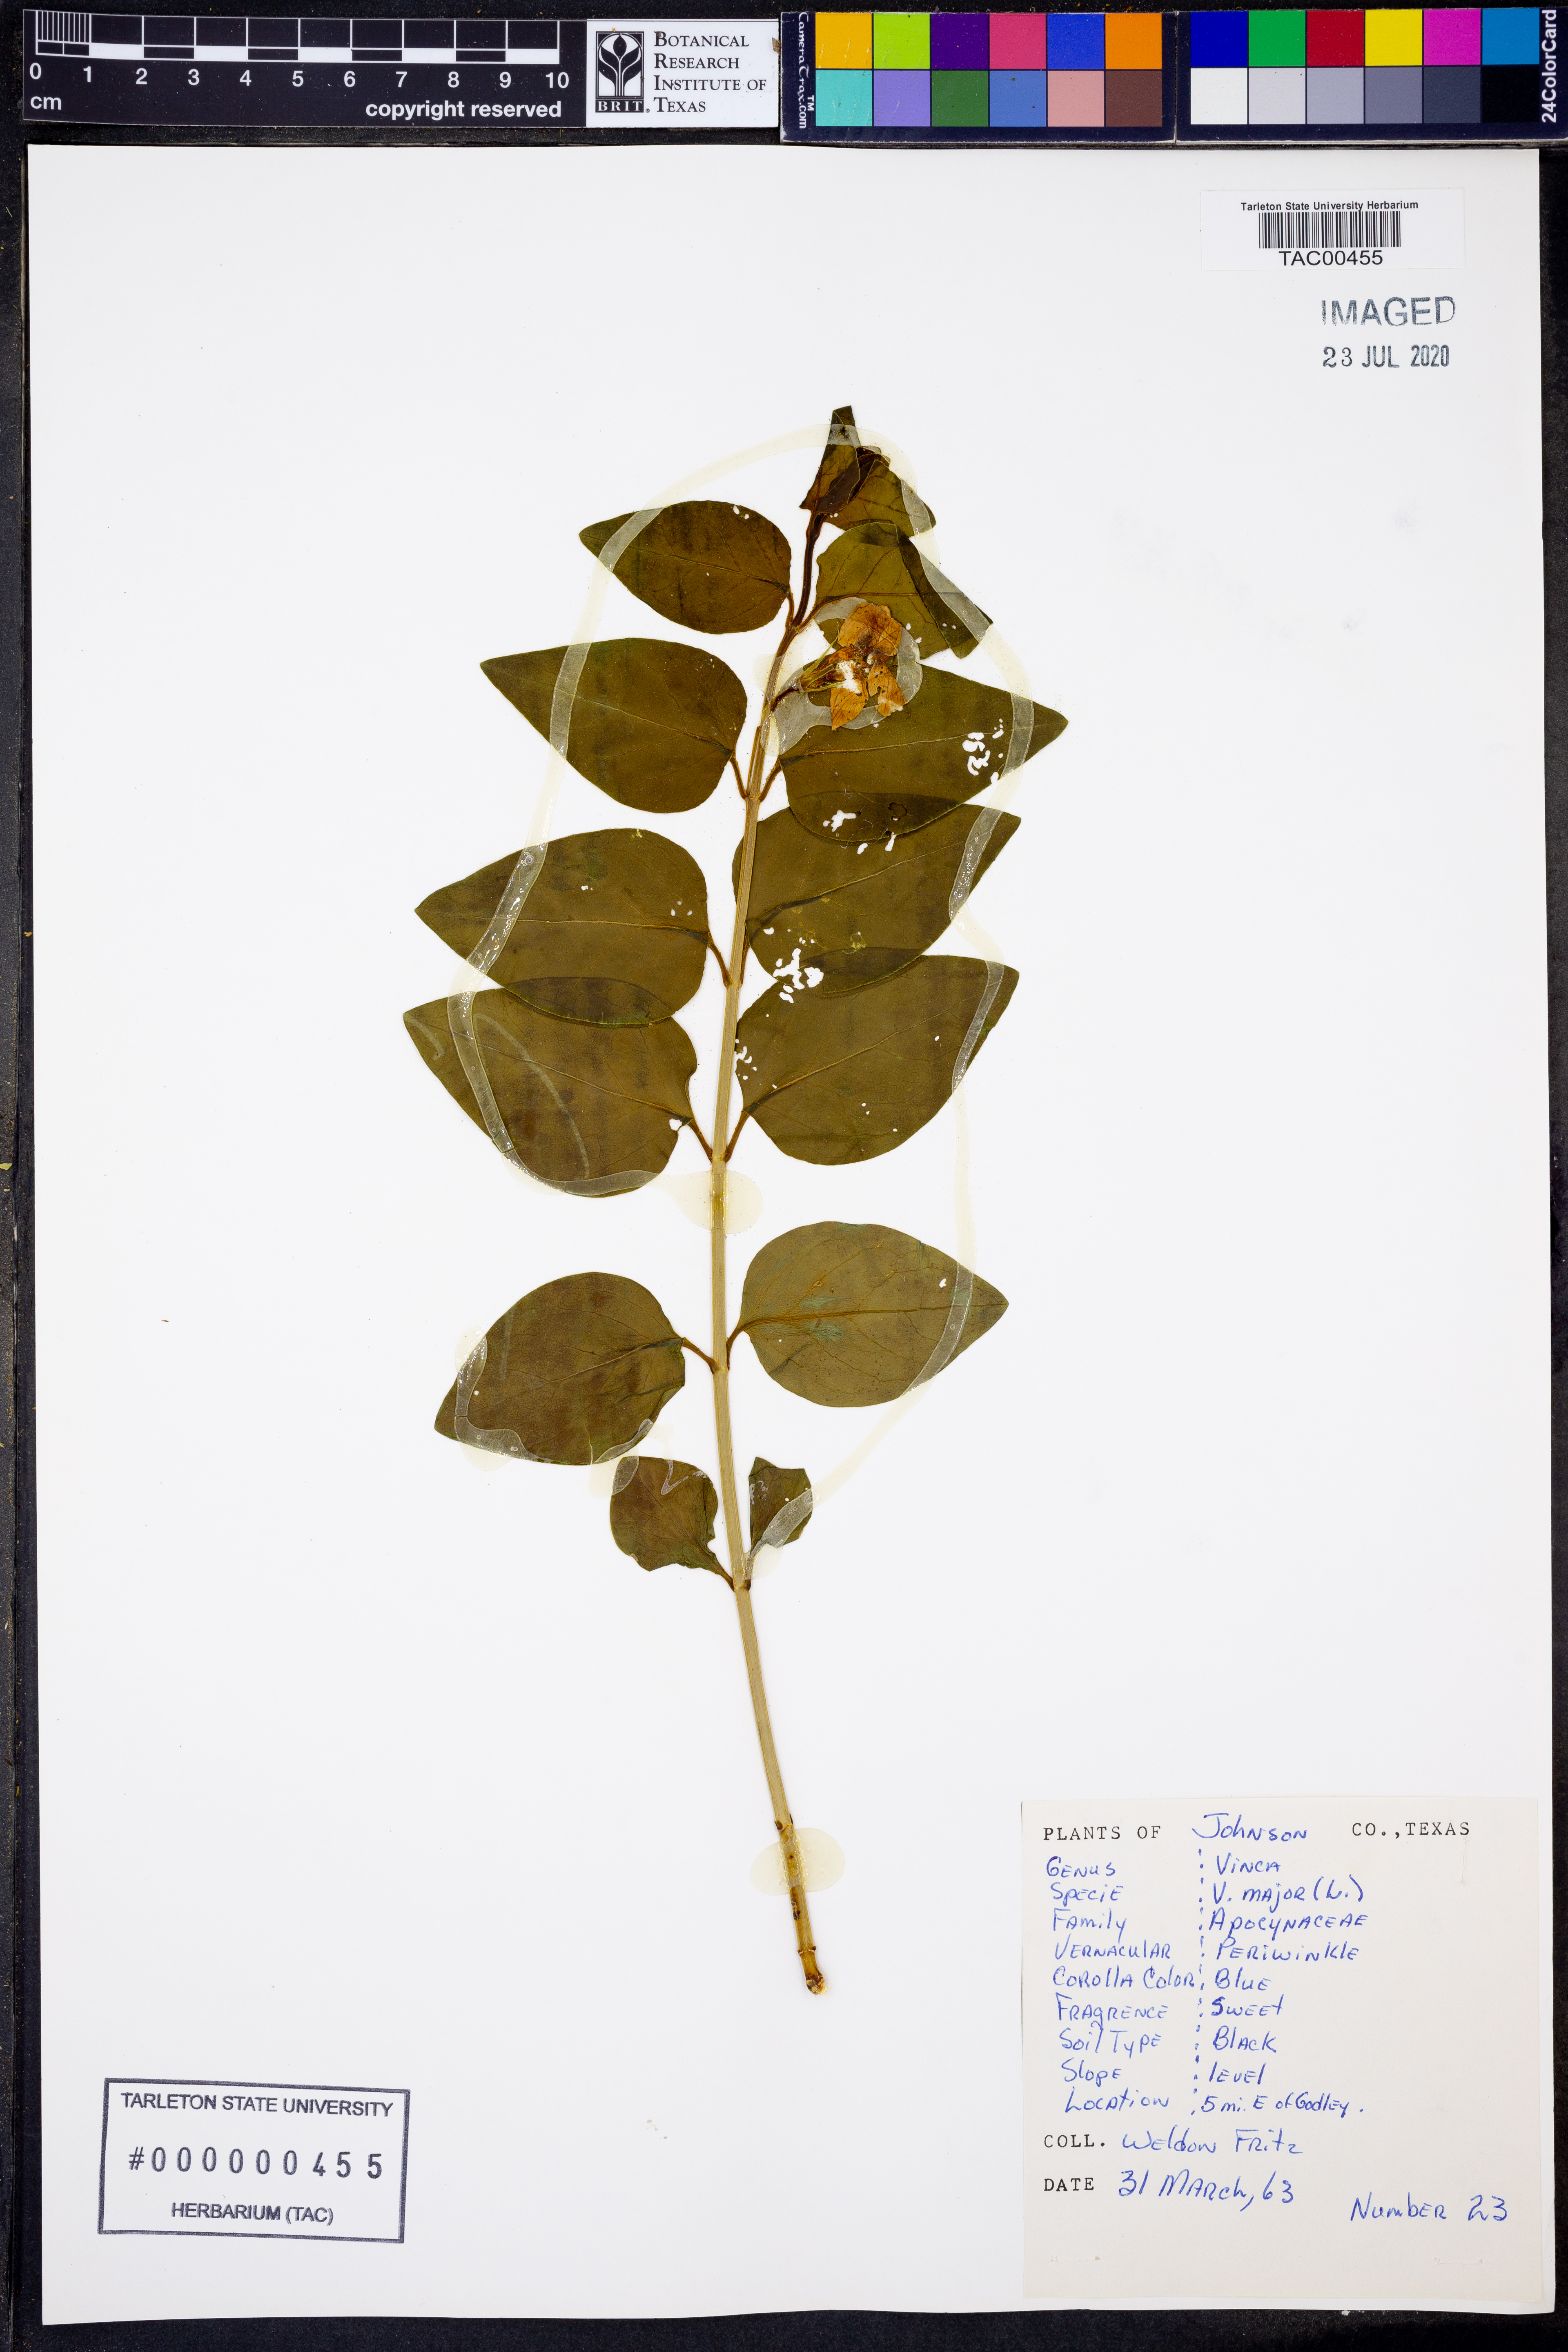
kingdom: Plantae
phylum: Tracheophyta
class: Magnoliopsida
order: Gentianales
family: Apocynaceae
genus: Vinca
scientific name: Vinca major
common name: Greater periwinkle
